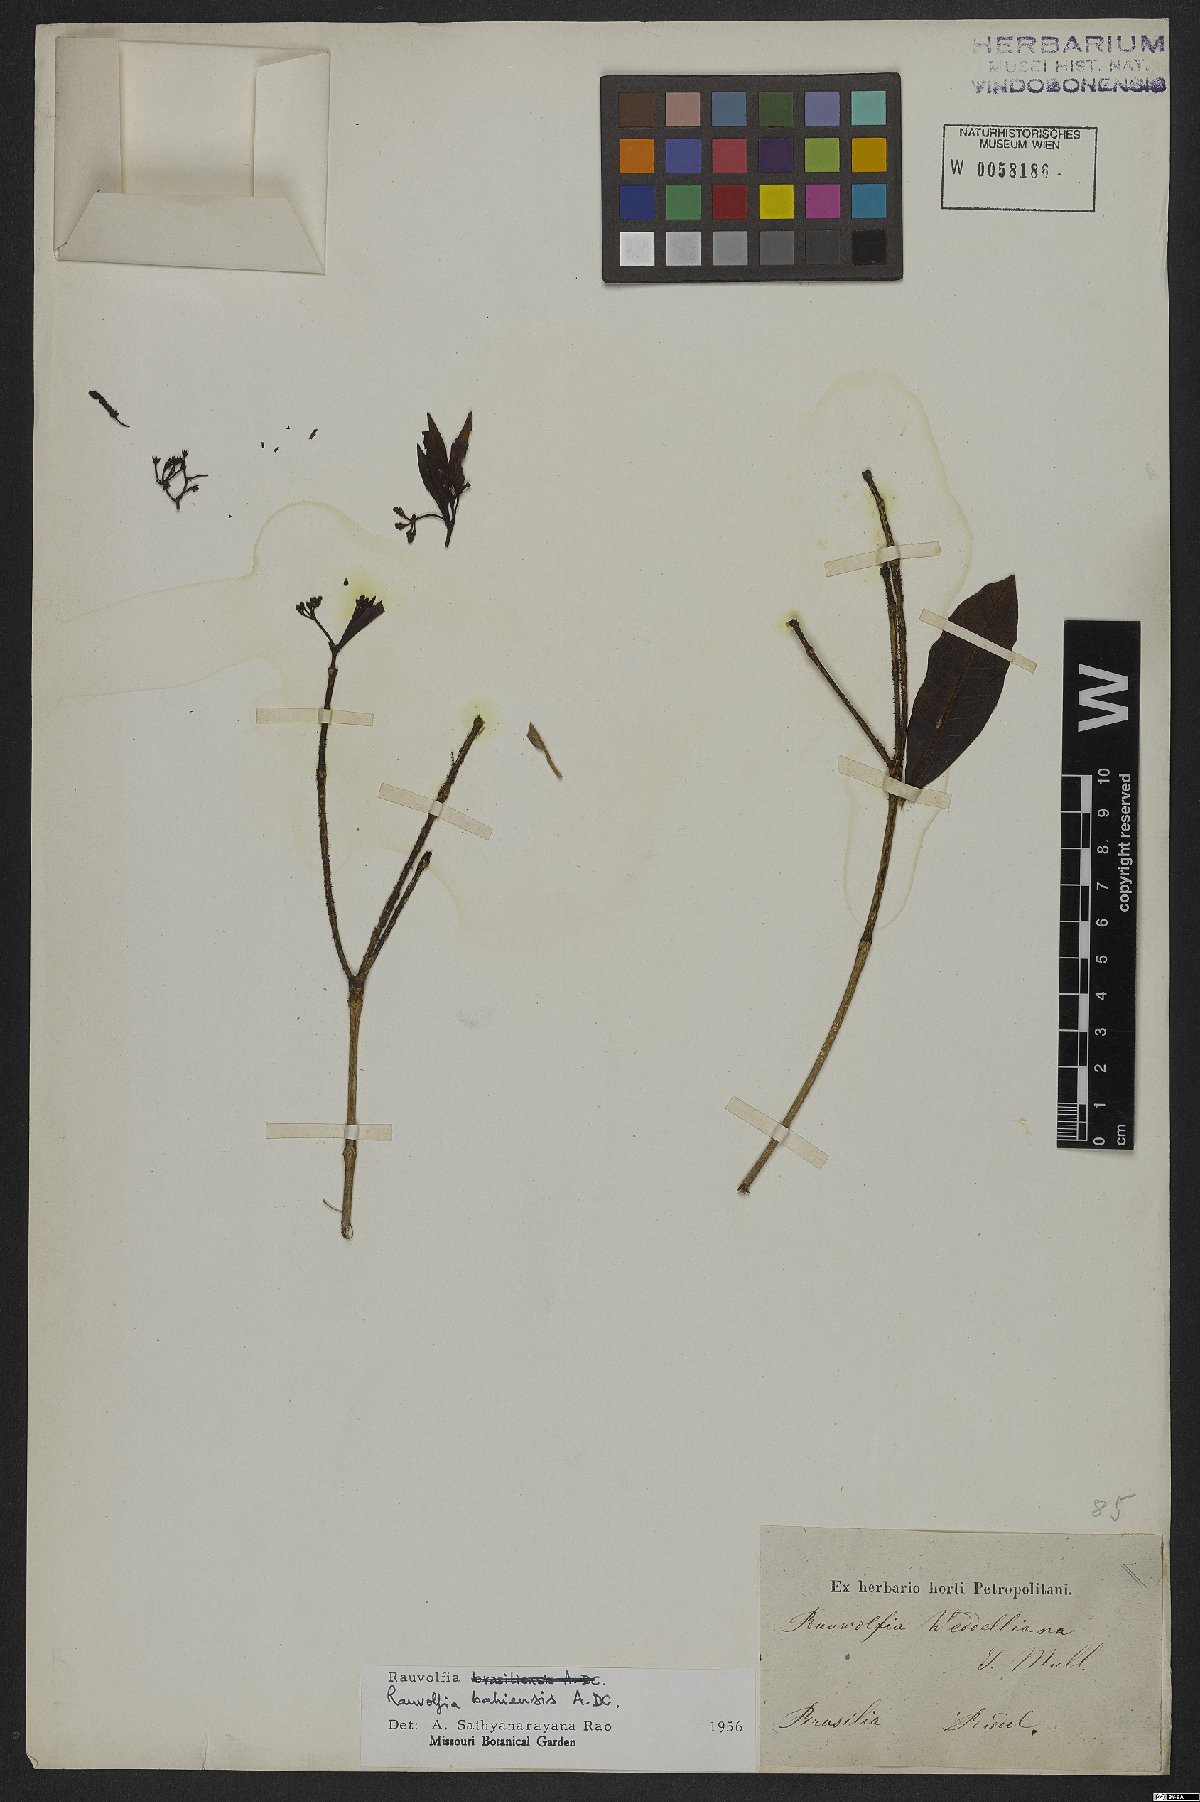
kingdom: Plantae
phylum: Tracheophyta
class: Magnoliopsida
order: Gentianales
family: Apocynaceae
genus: Rauvolfia
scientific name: Rauvolfia bahiensis
